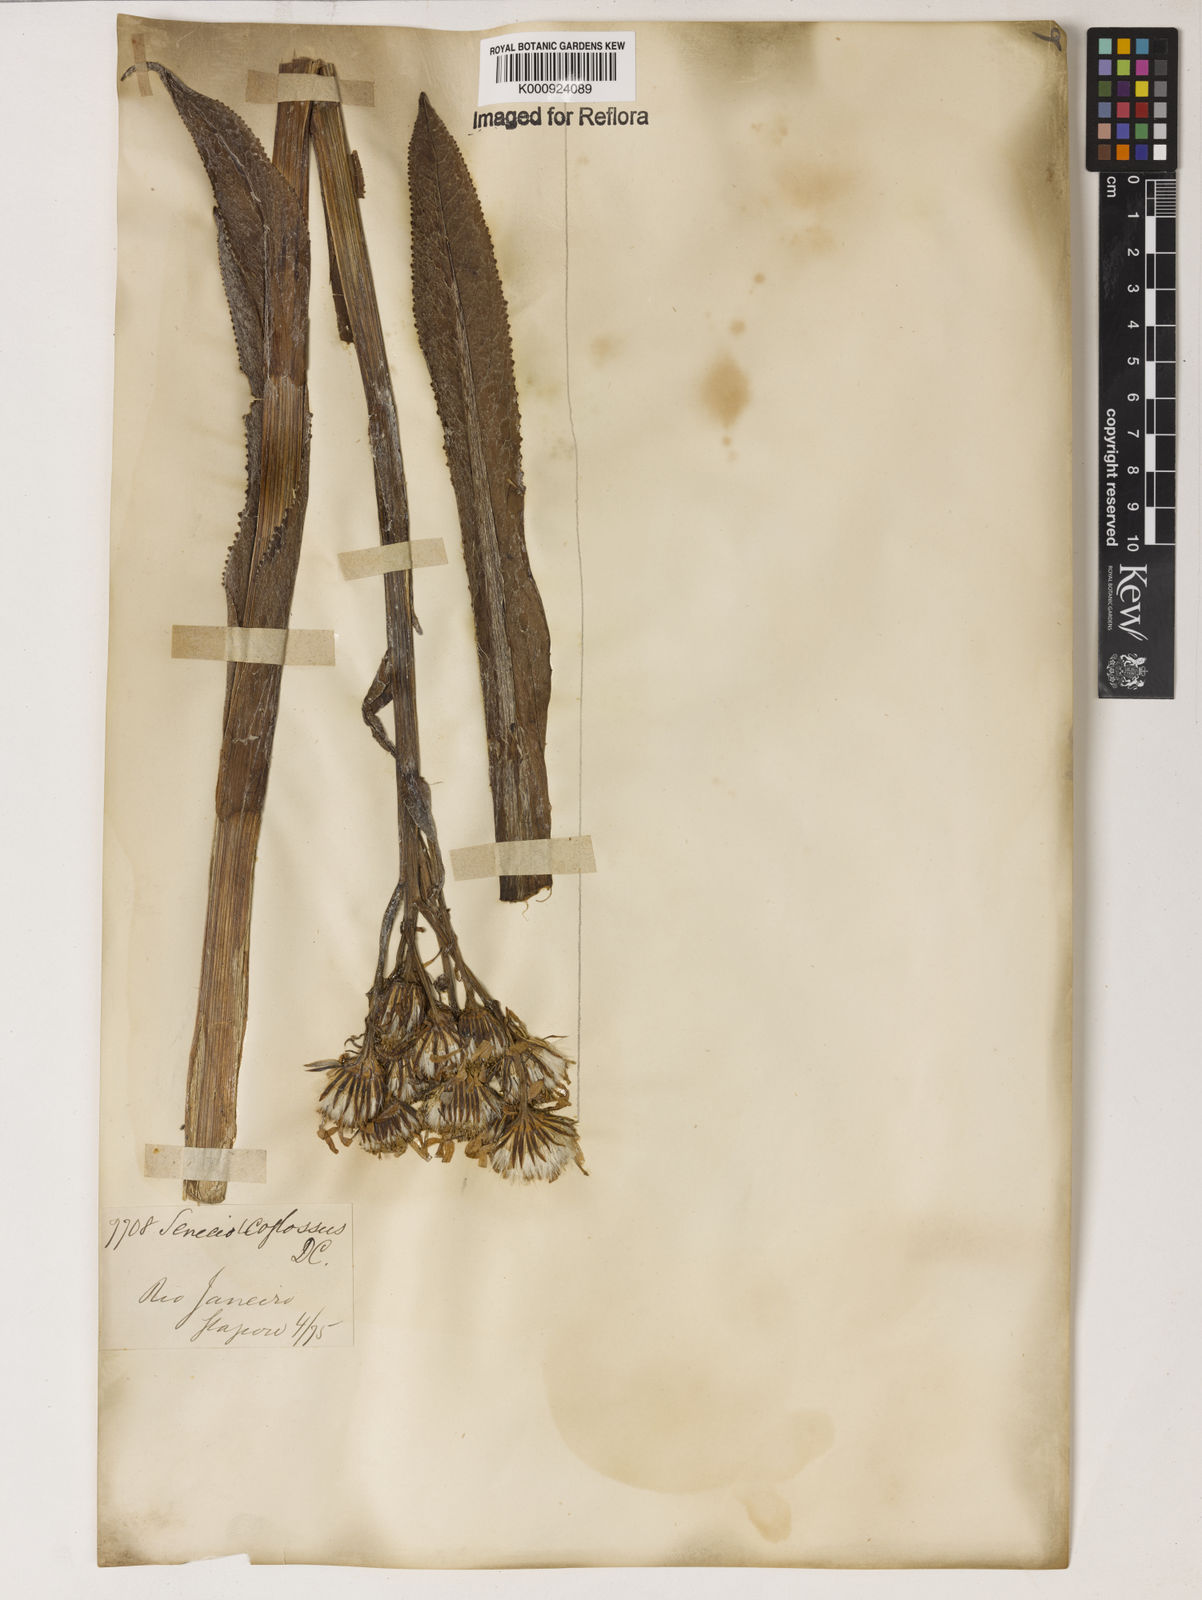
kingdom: Plantae
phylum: Tracheophyta
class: Magnoliopsida
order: Asterales
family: Asteraceae
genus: Senecio
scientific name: Senecio icoglossus
